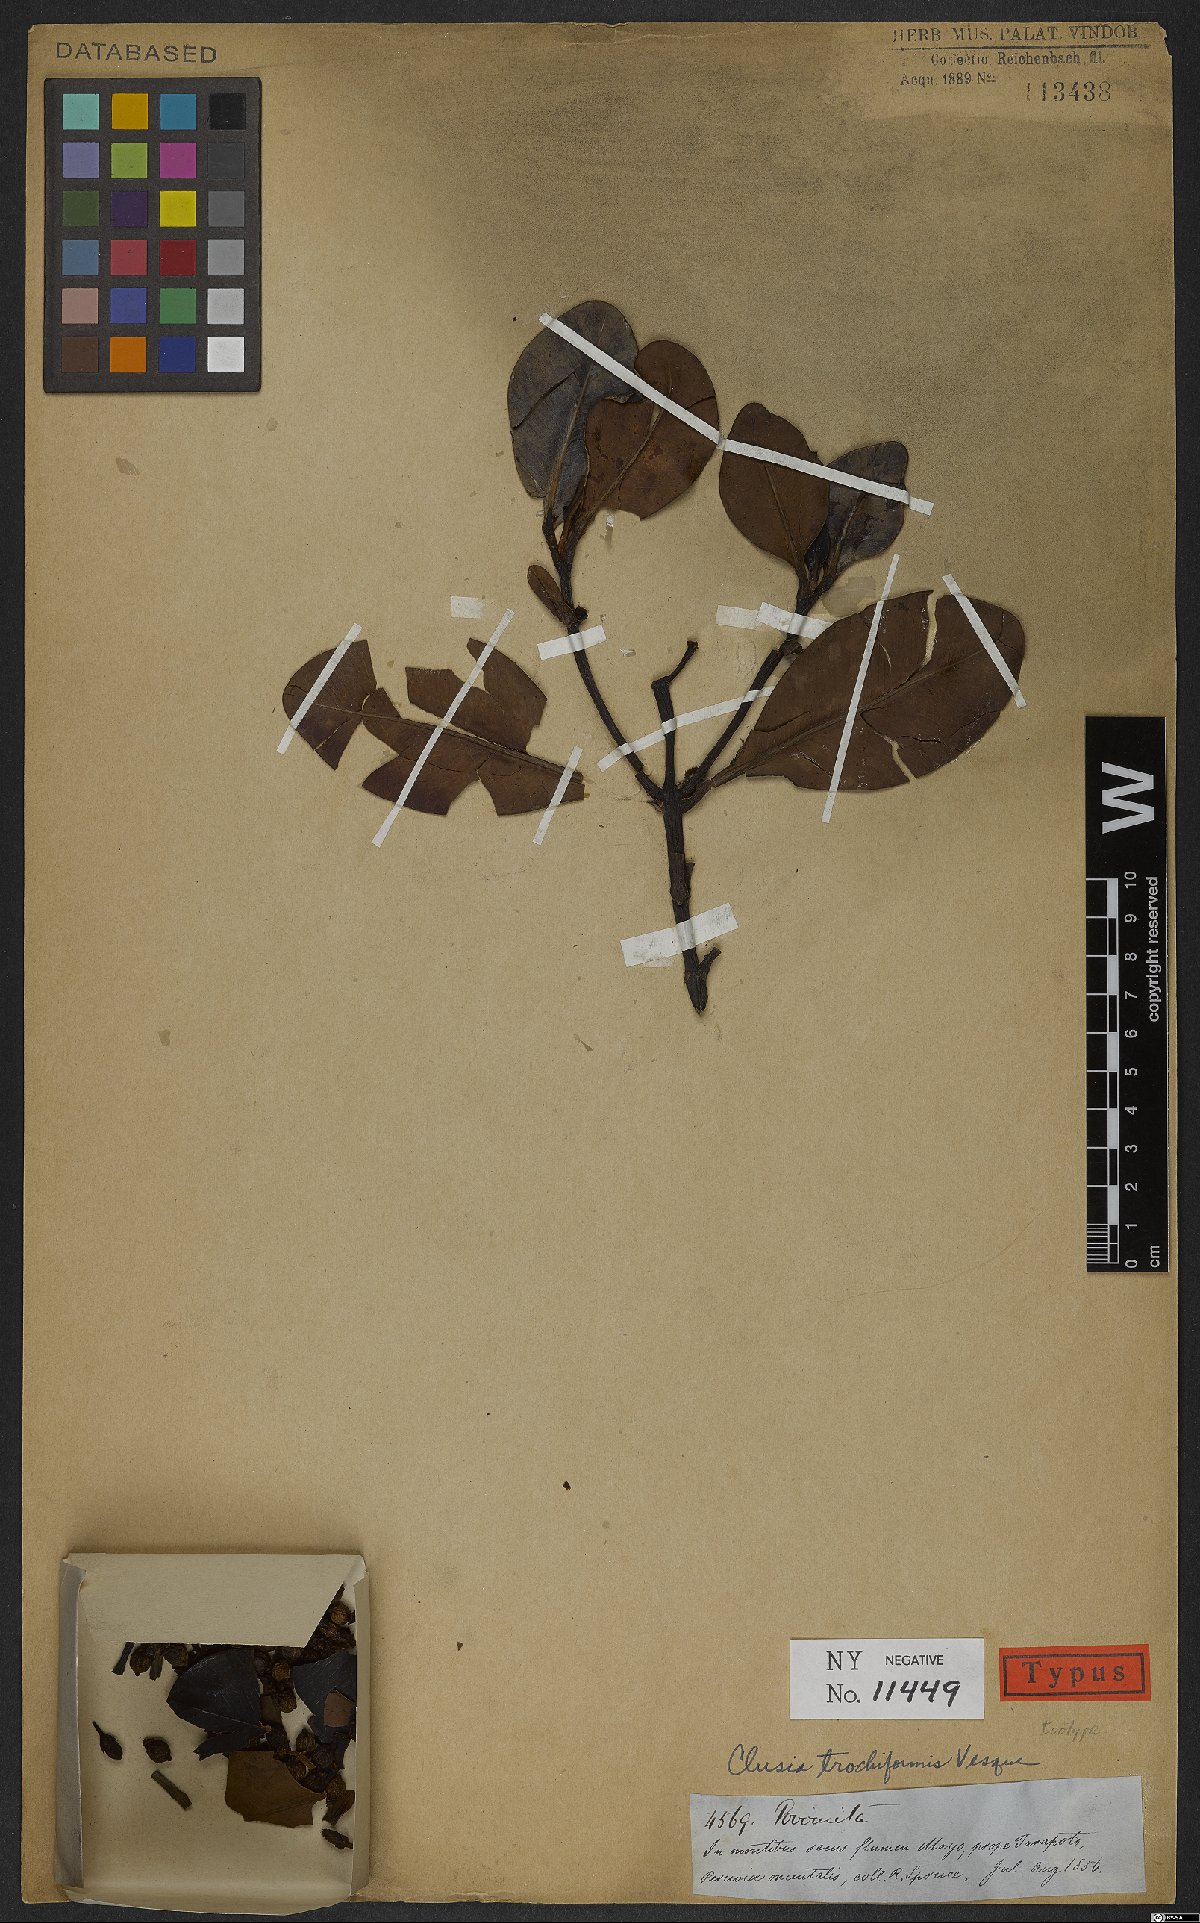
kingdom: Plantae
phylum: Tracheophyta
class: Magnoliopsida
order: Malpighiales
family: Clusiaceae
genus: Clusia
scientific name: Clusia trochiformis
